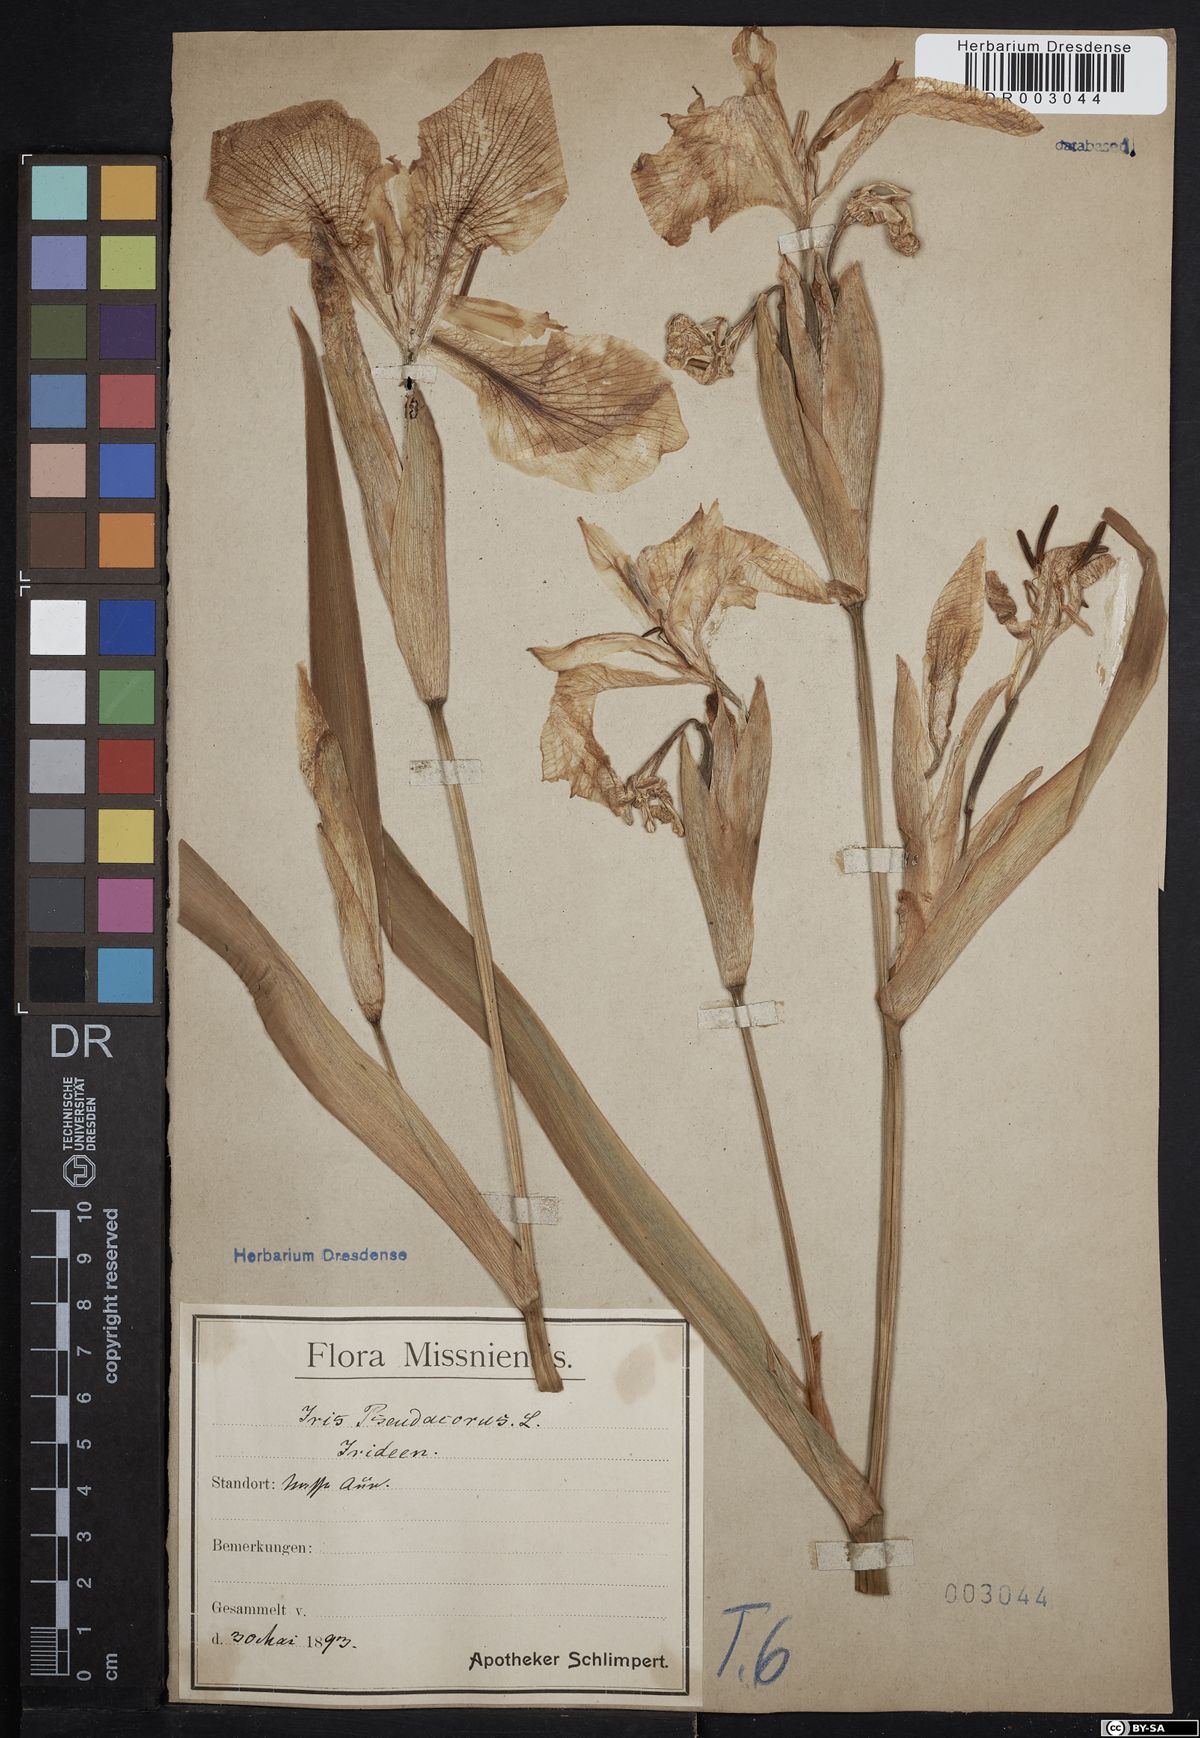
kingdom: Plantae
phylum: Tracheophyta
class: Liliopsida
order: Asparagales
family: Iridaceae
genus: Iris
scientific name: Iris pseudacorus
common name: Yellow flag
